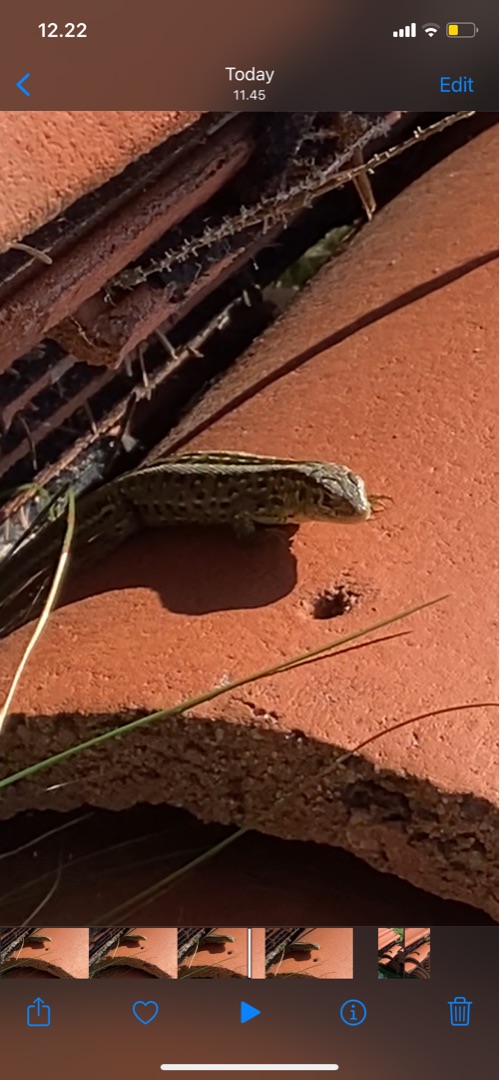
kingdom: Animalia
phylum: Chordata
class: Squamata
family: Lacertidae
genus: Lacerta
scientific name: Lacerta agilis
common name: Markfirben
